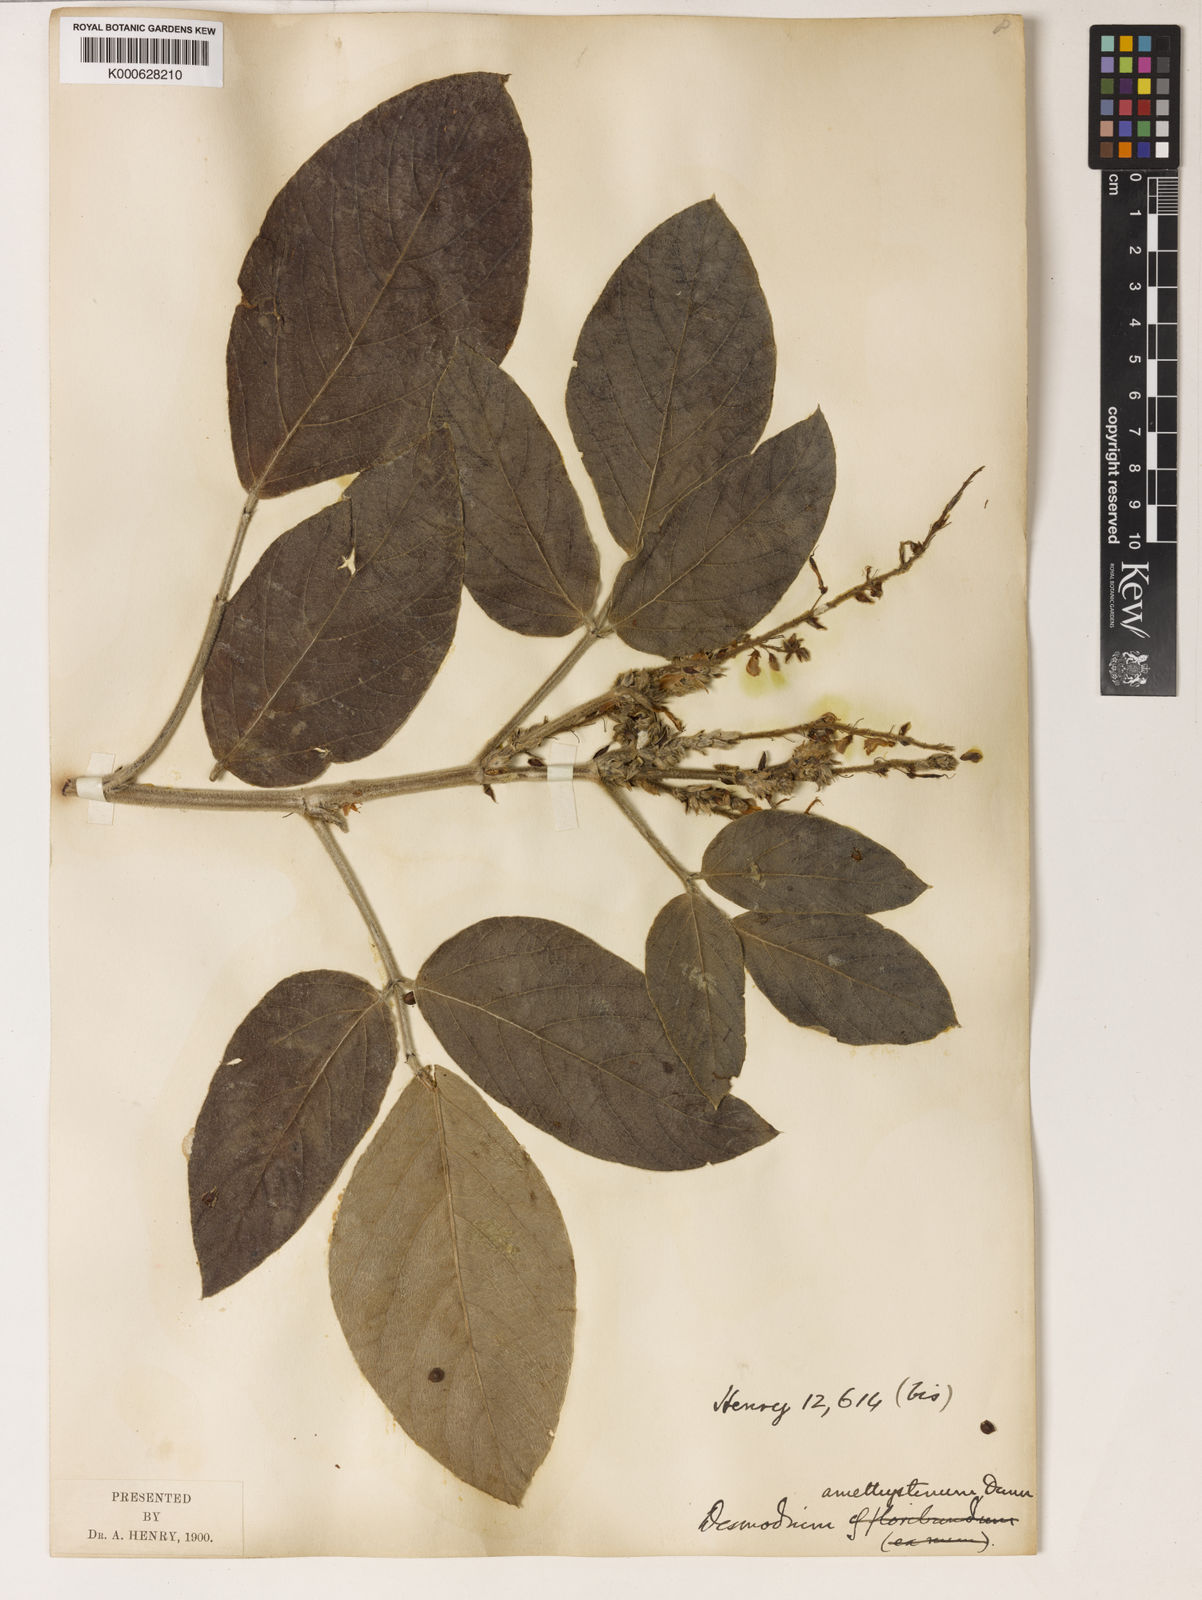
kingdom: Plantae
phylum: Tracheophyta
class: Magnoliopsida
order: Fabales
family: Fabaceae
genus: Ototropis
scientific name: Ototropis amethystina
